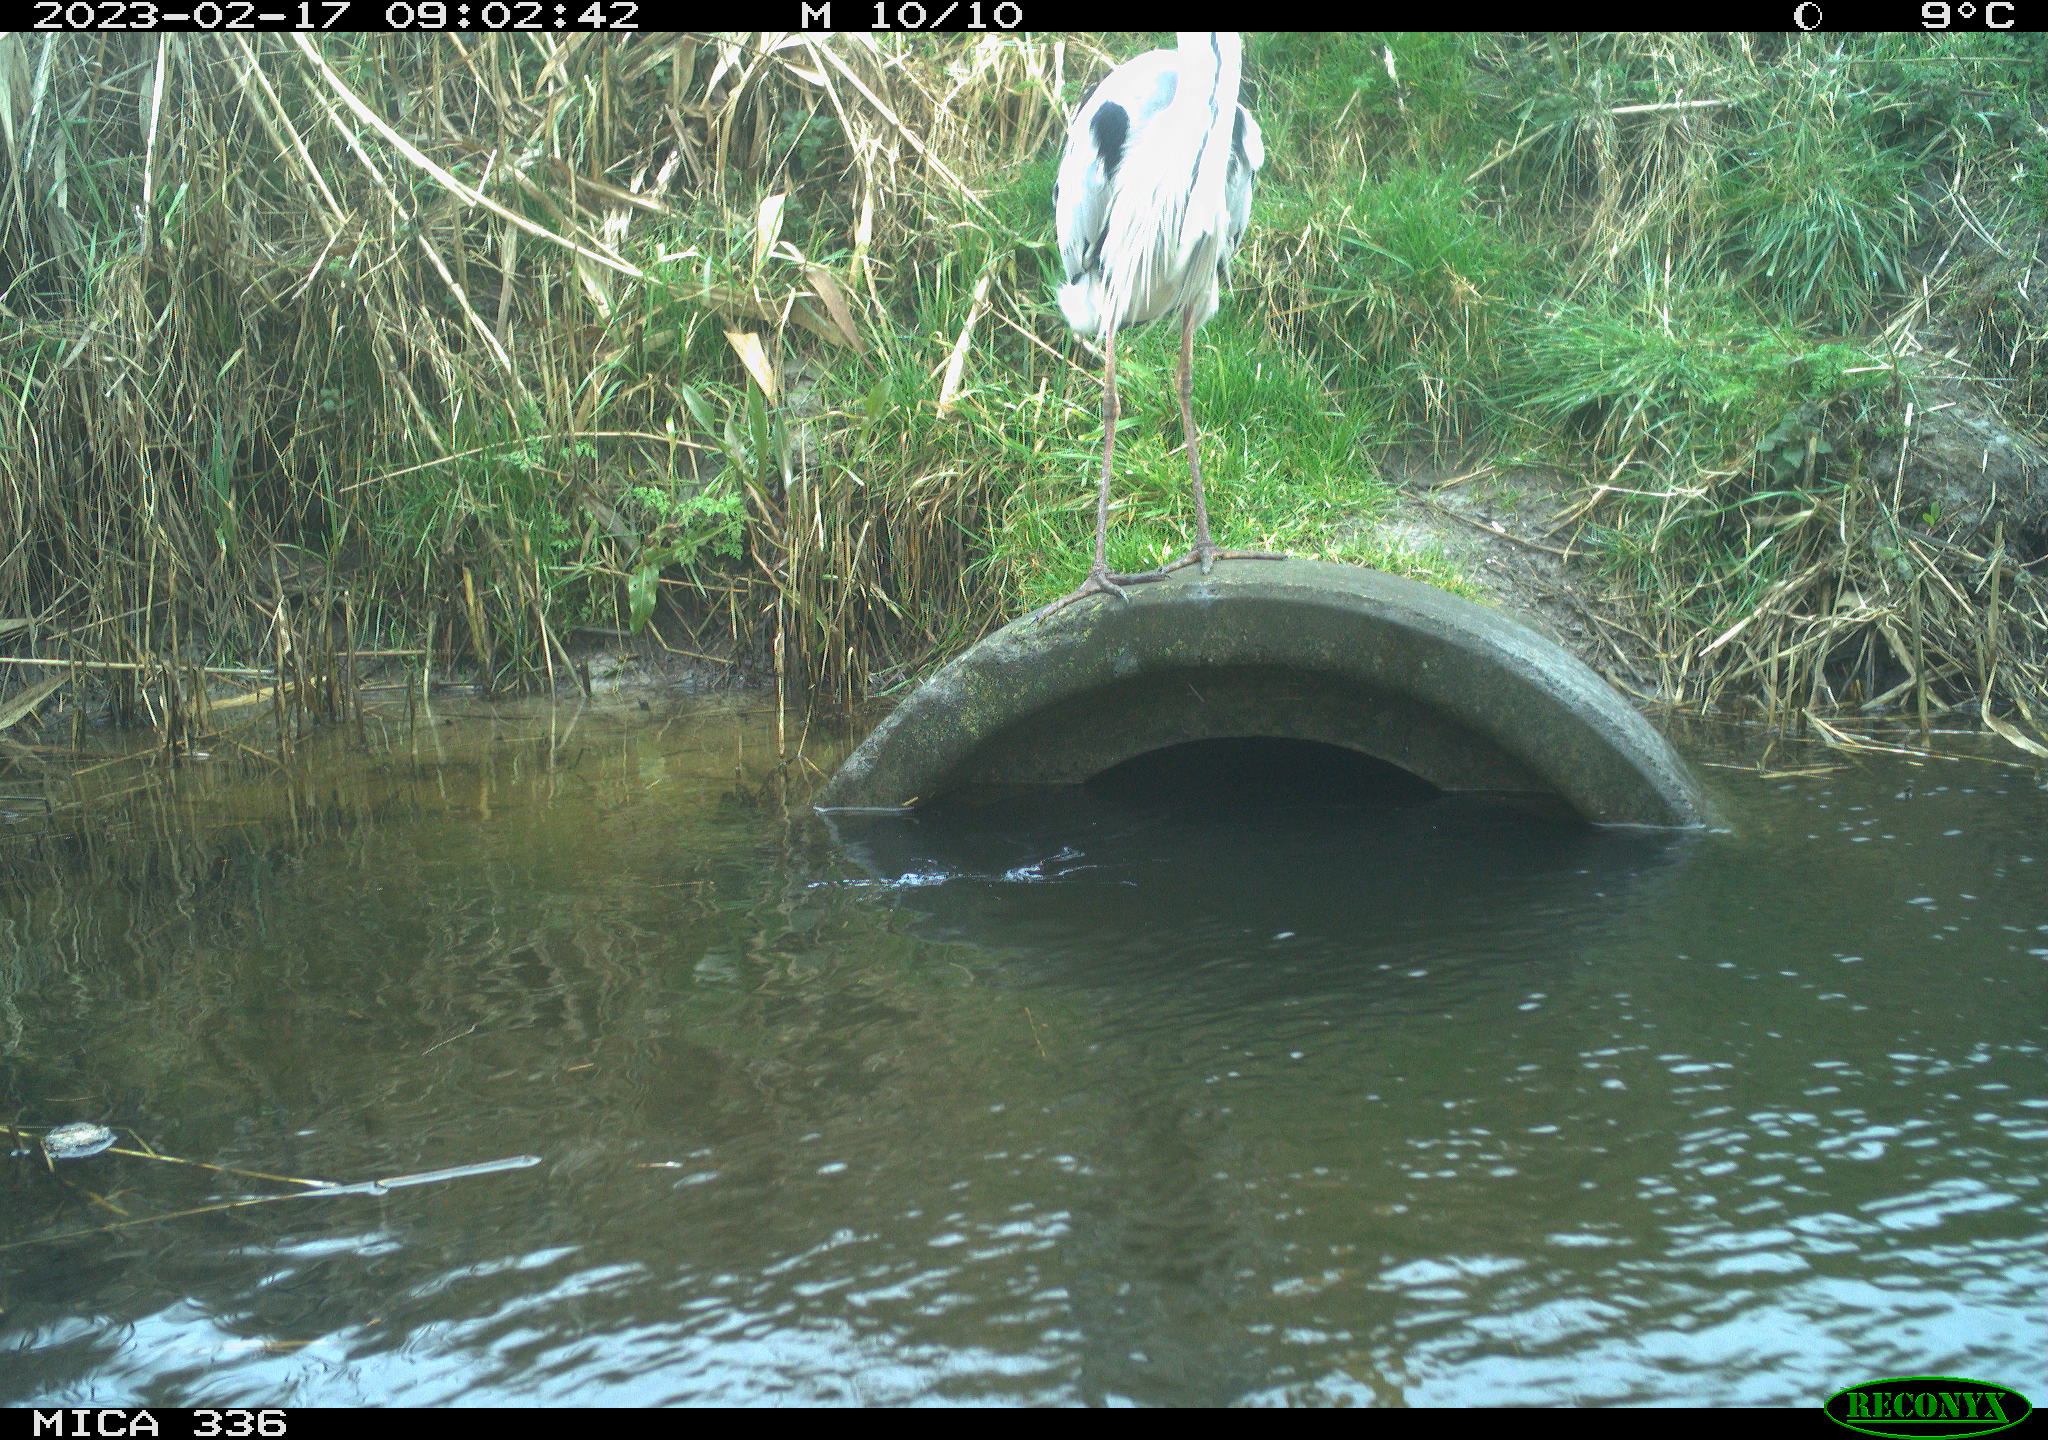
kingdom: Animalia
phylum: Chordata
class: Aves
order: Pelecaniformes
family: Ardeidae
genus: Ardea
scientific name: Ardea cinerea
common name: Grey heron
